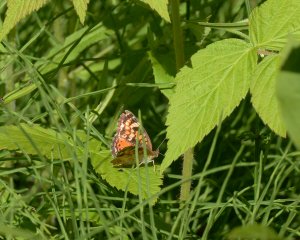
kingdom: Animalia
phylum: Arthropoda
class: Insecta
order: Lepidoptera
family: Nymphalidae
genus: Phyciodes
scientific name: Phyciodes tharos
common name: Northern Crescent
